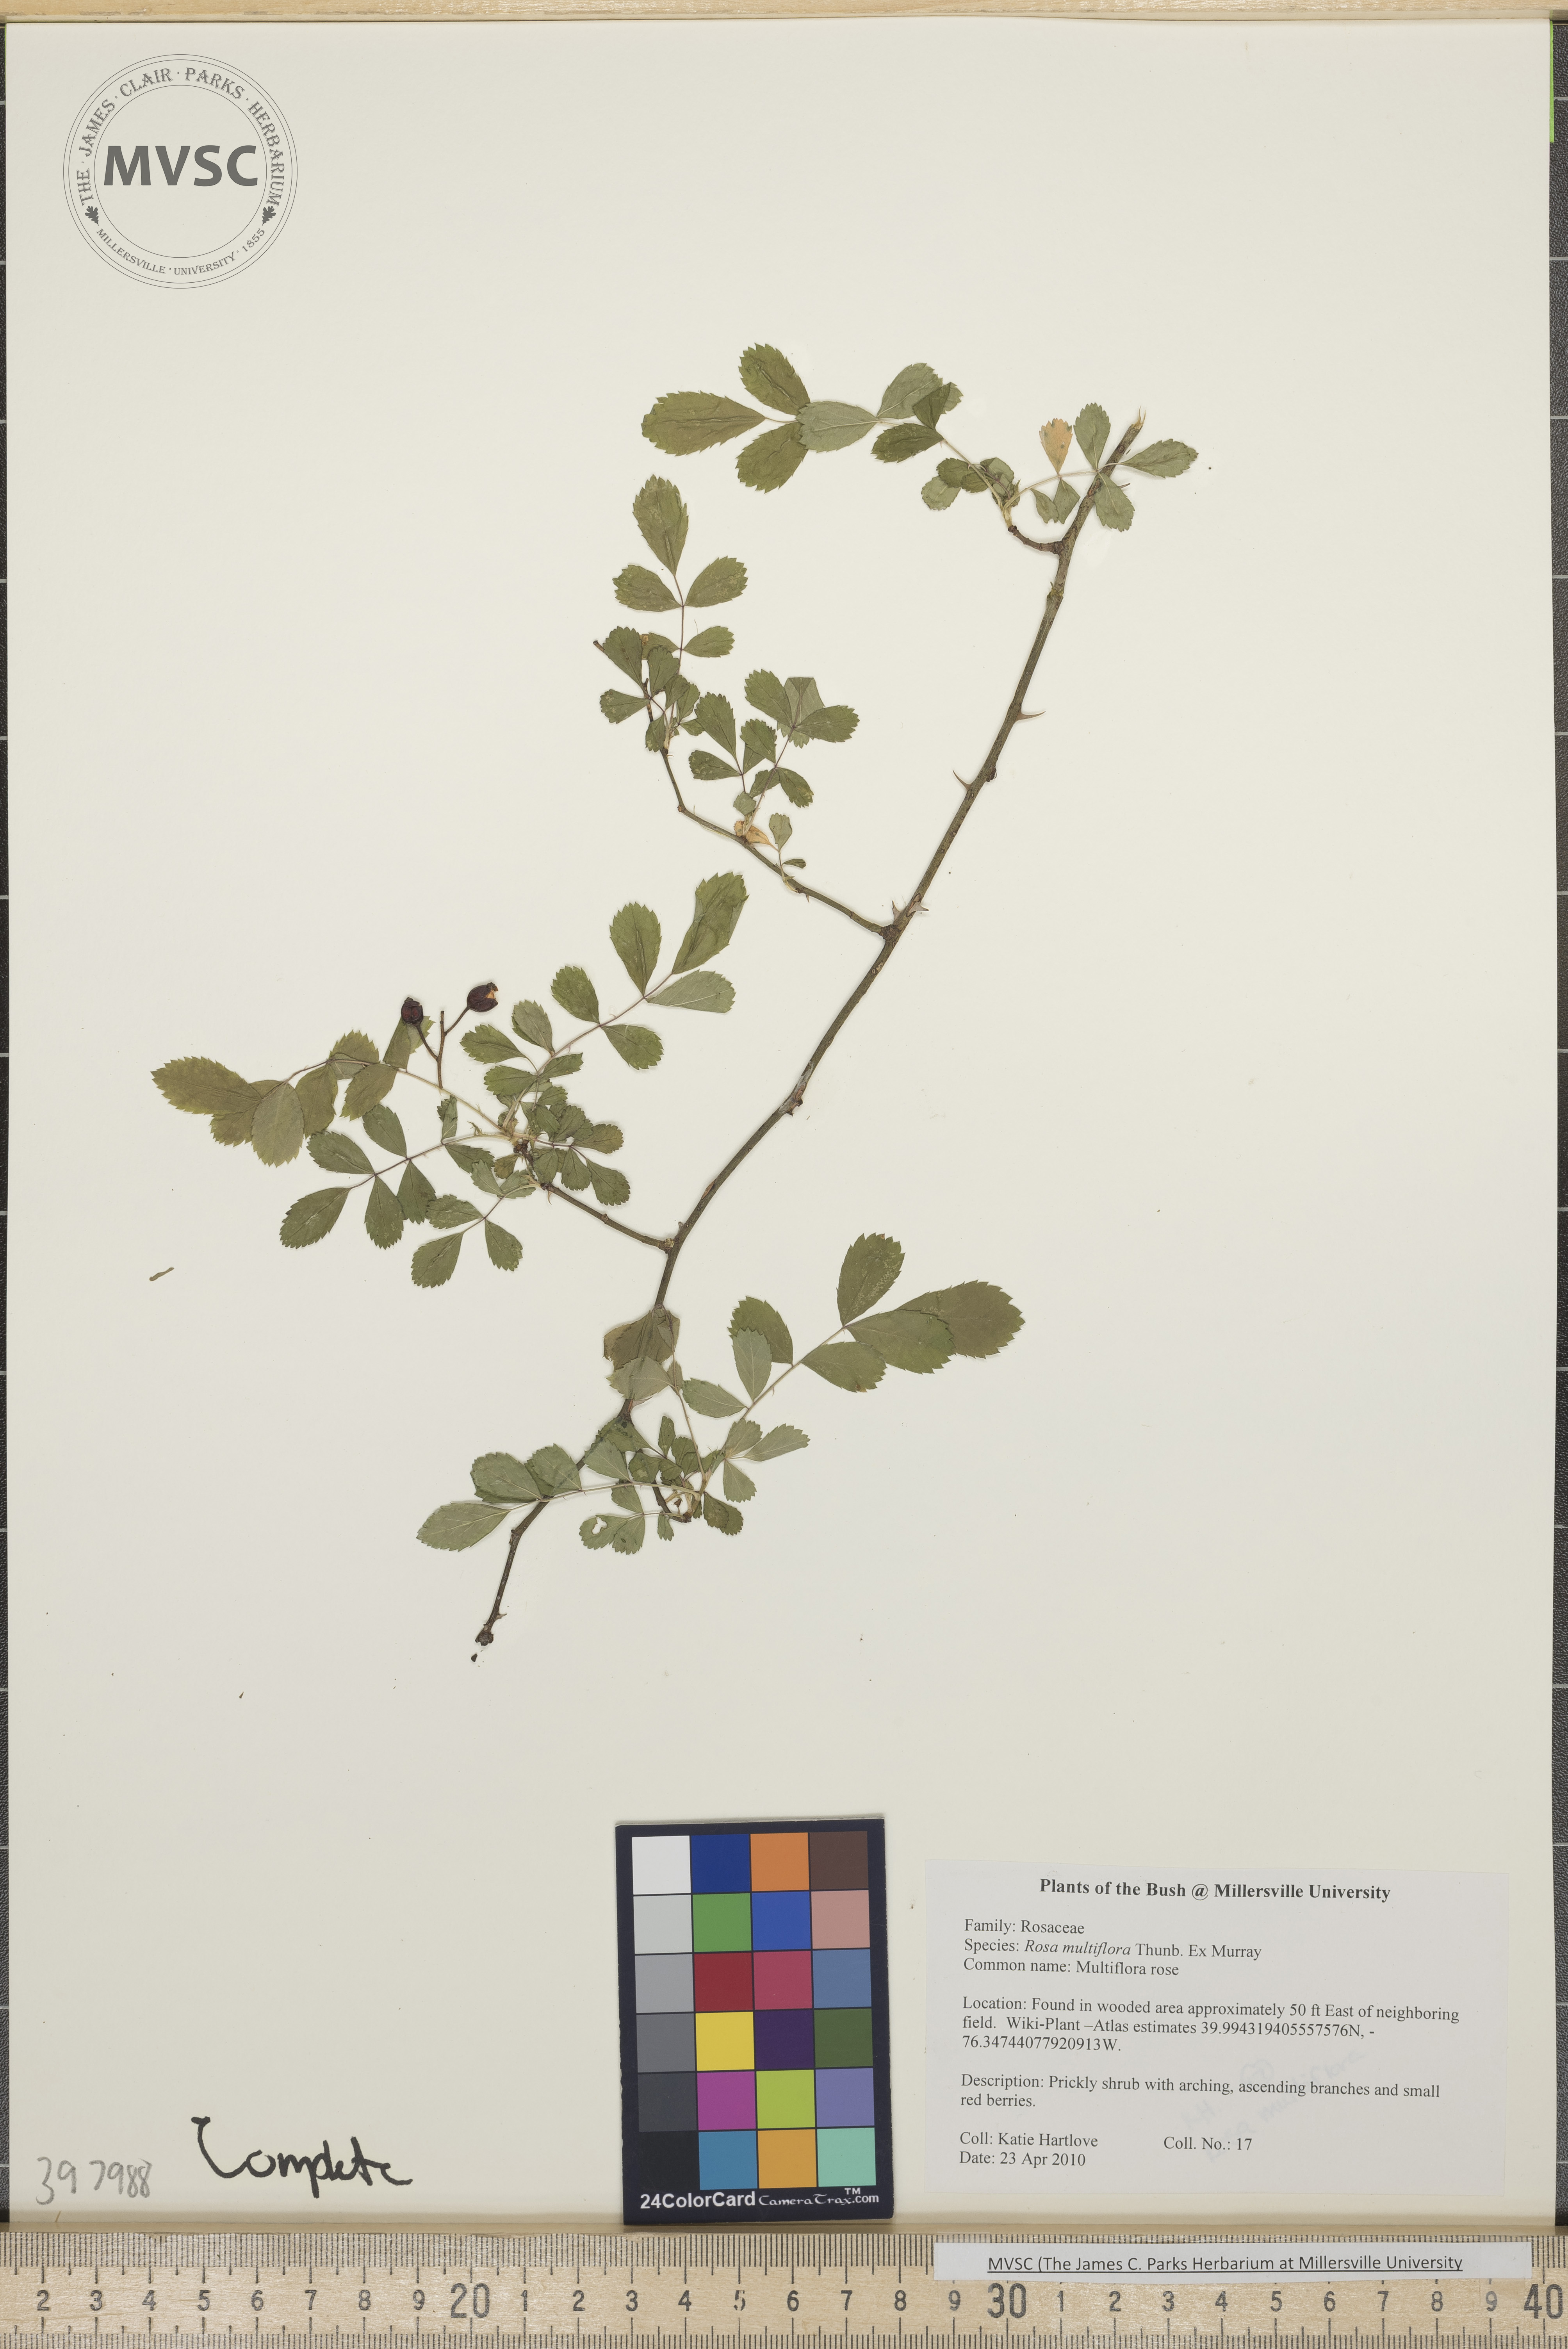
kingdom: Plantae
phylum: Tracheophyta
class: Magnoliopsida
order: Rosales
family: Rosaceae
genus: Rosa
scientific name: Rosa multiflora
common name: Multiflora rose
